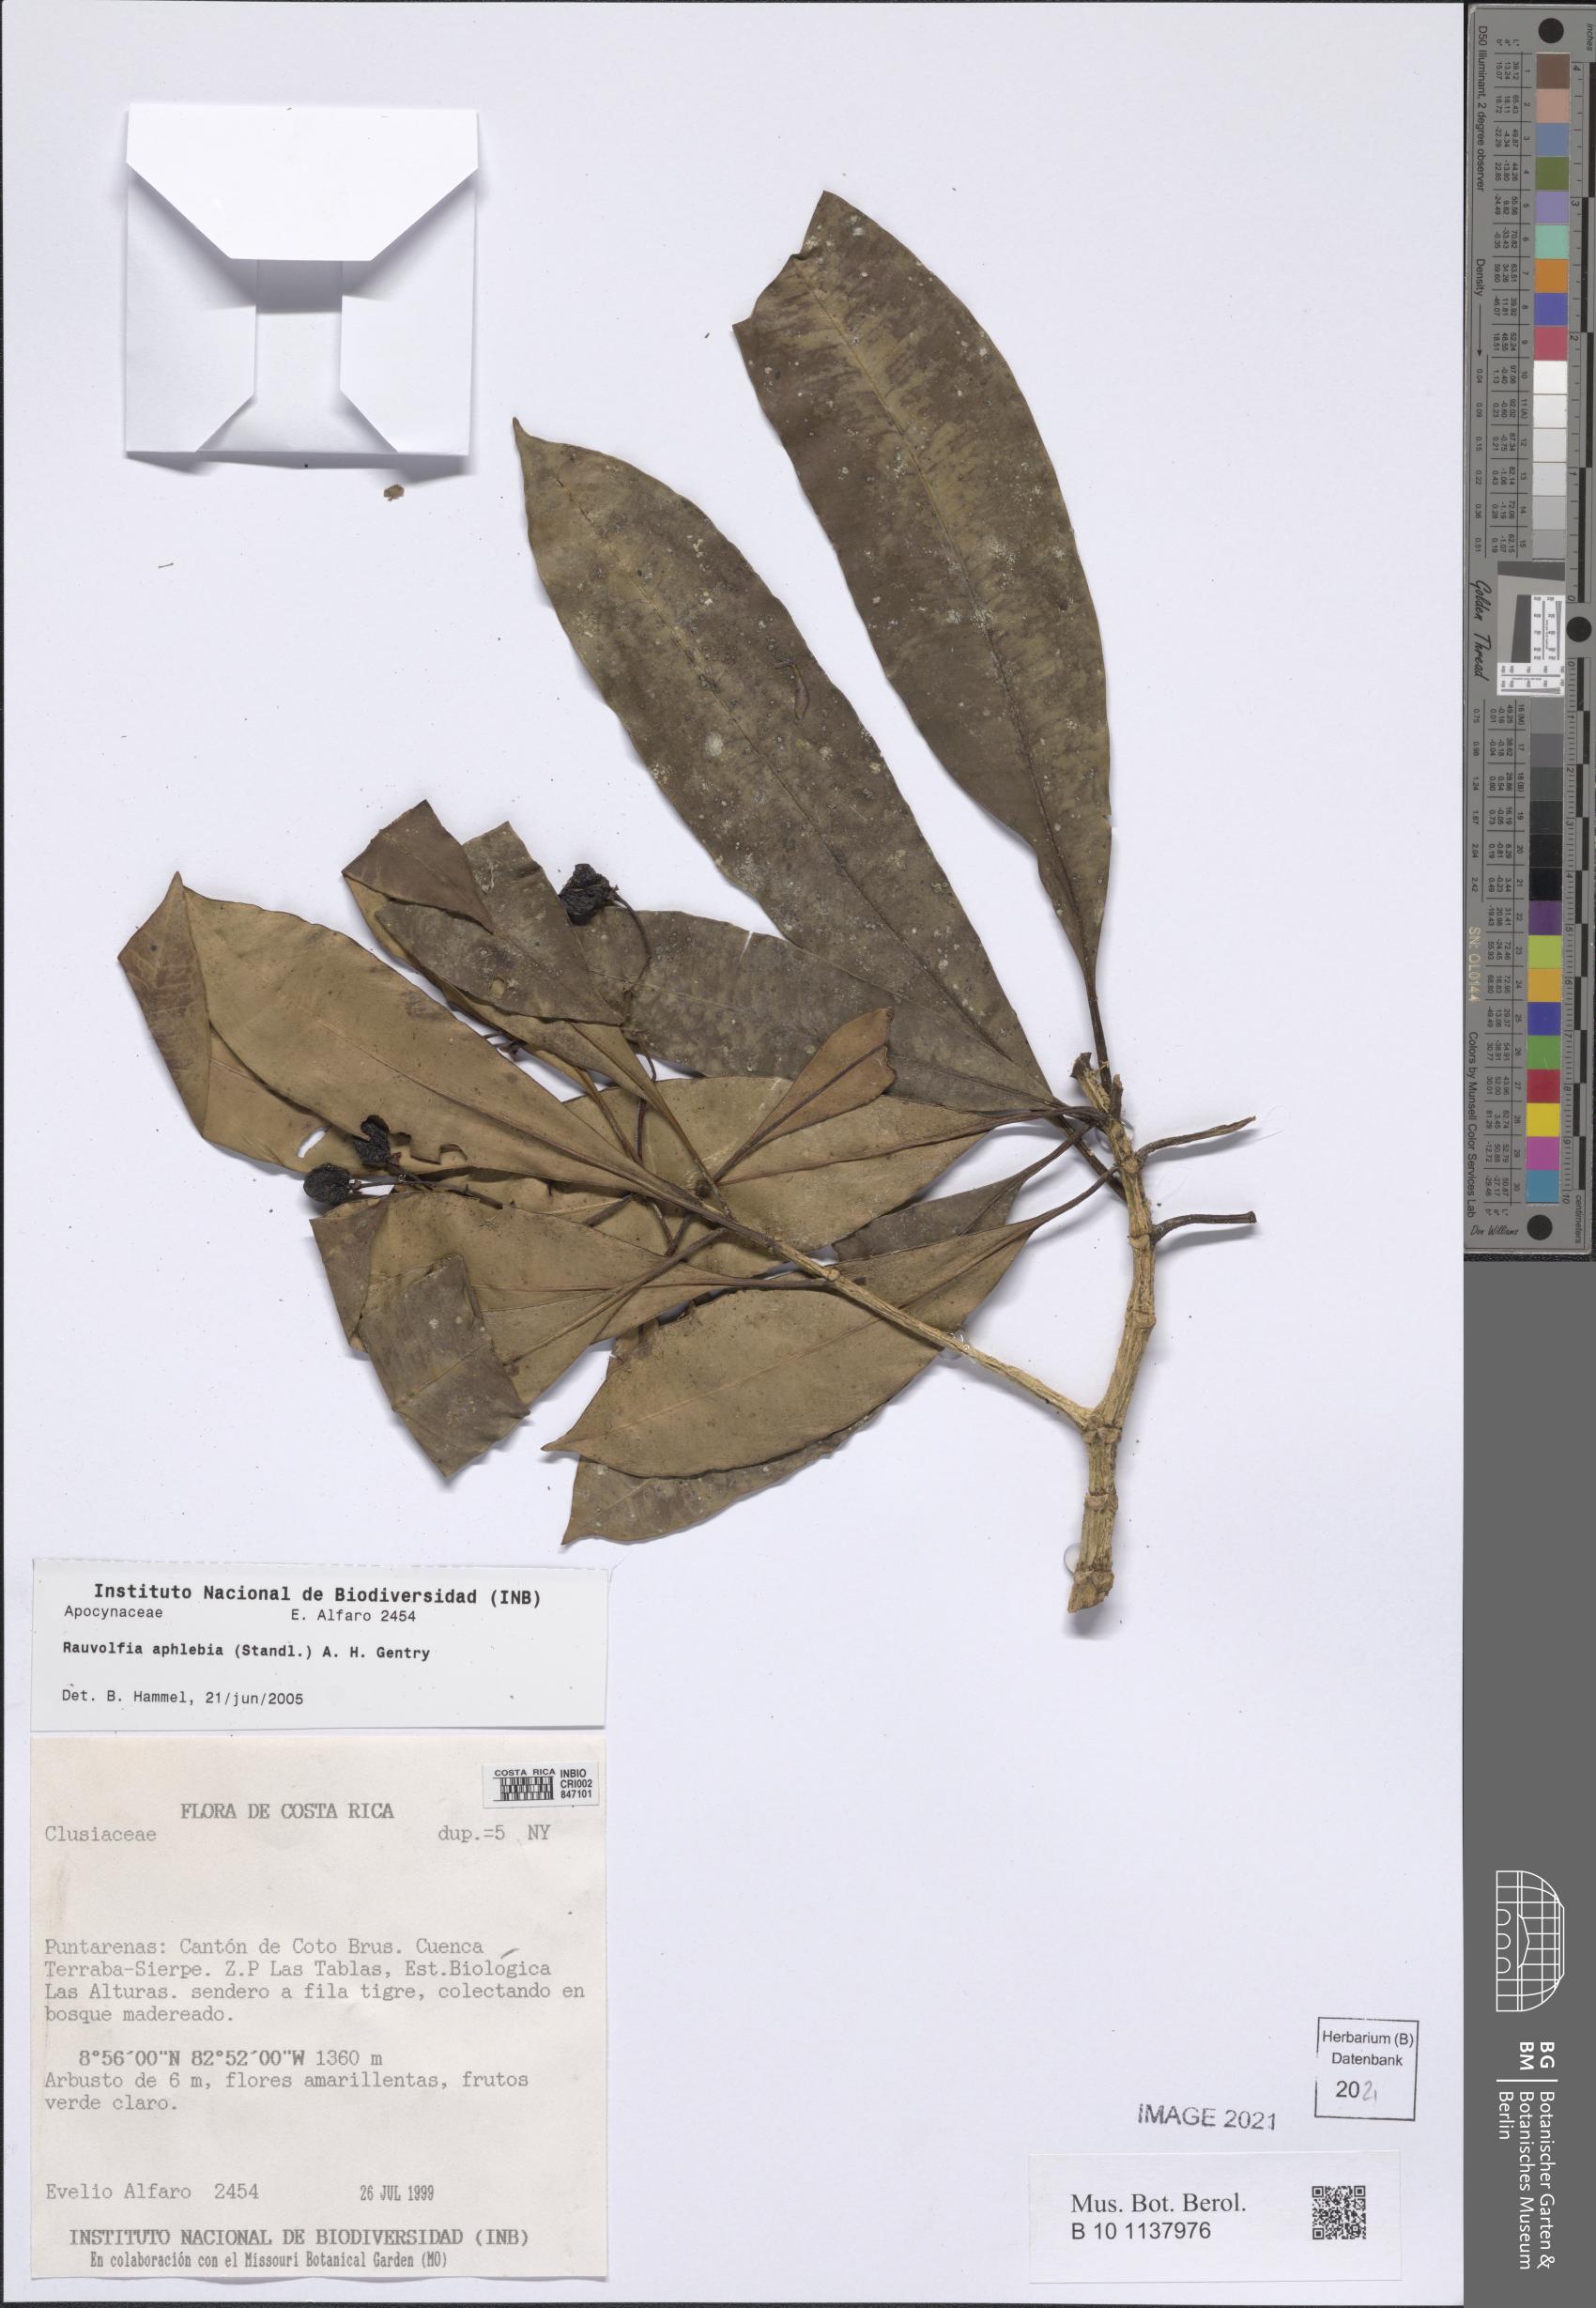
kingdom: Plantae
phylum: Tracheophyta
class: Magnoliopsida
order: Gentianales
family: Apocynaceae
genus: Rauvolfia
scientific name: Rauvolfia aphlebia
